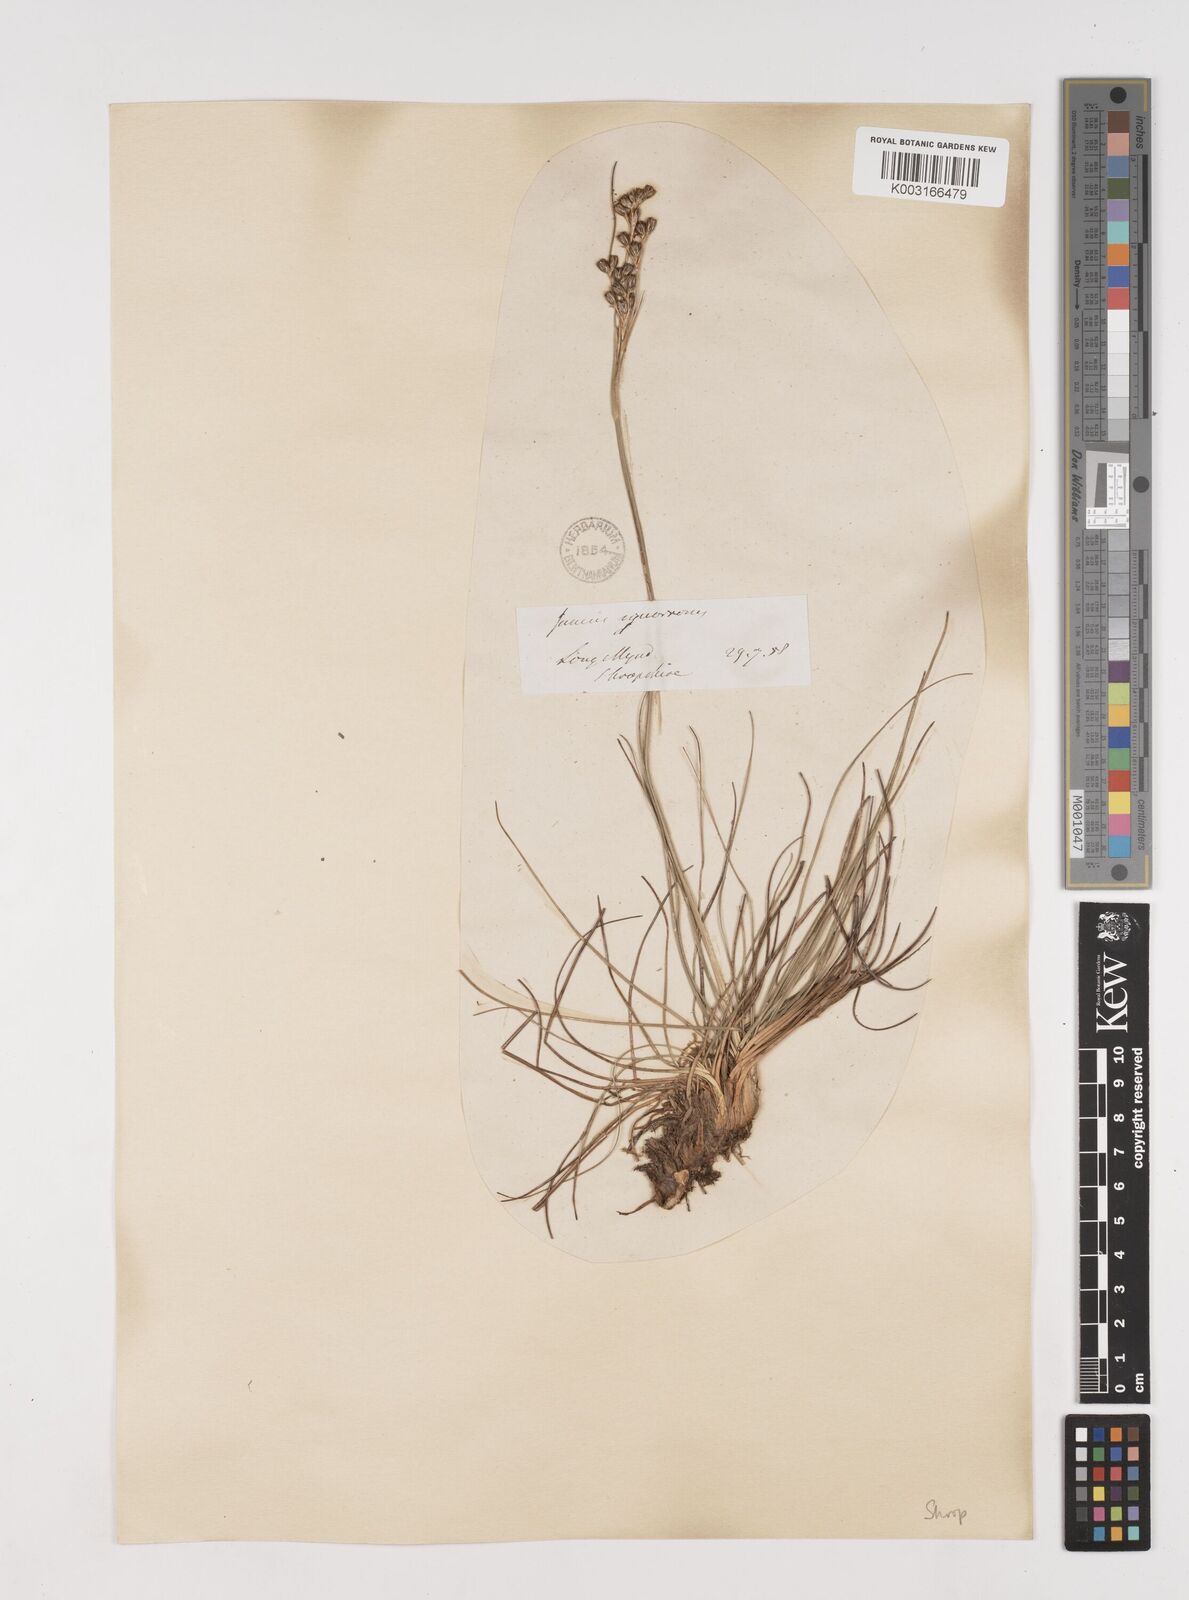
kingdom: Plantae
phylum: Tracheophyta
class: Liliopsida
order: Poales
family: Juncaceae
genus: Juncus
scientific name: Juncus squarrosus
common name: Heath rush
